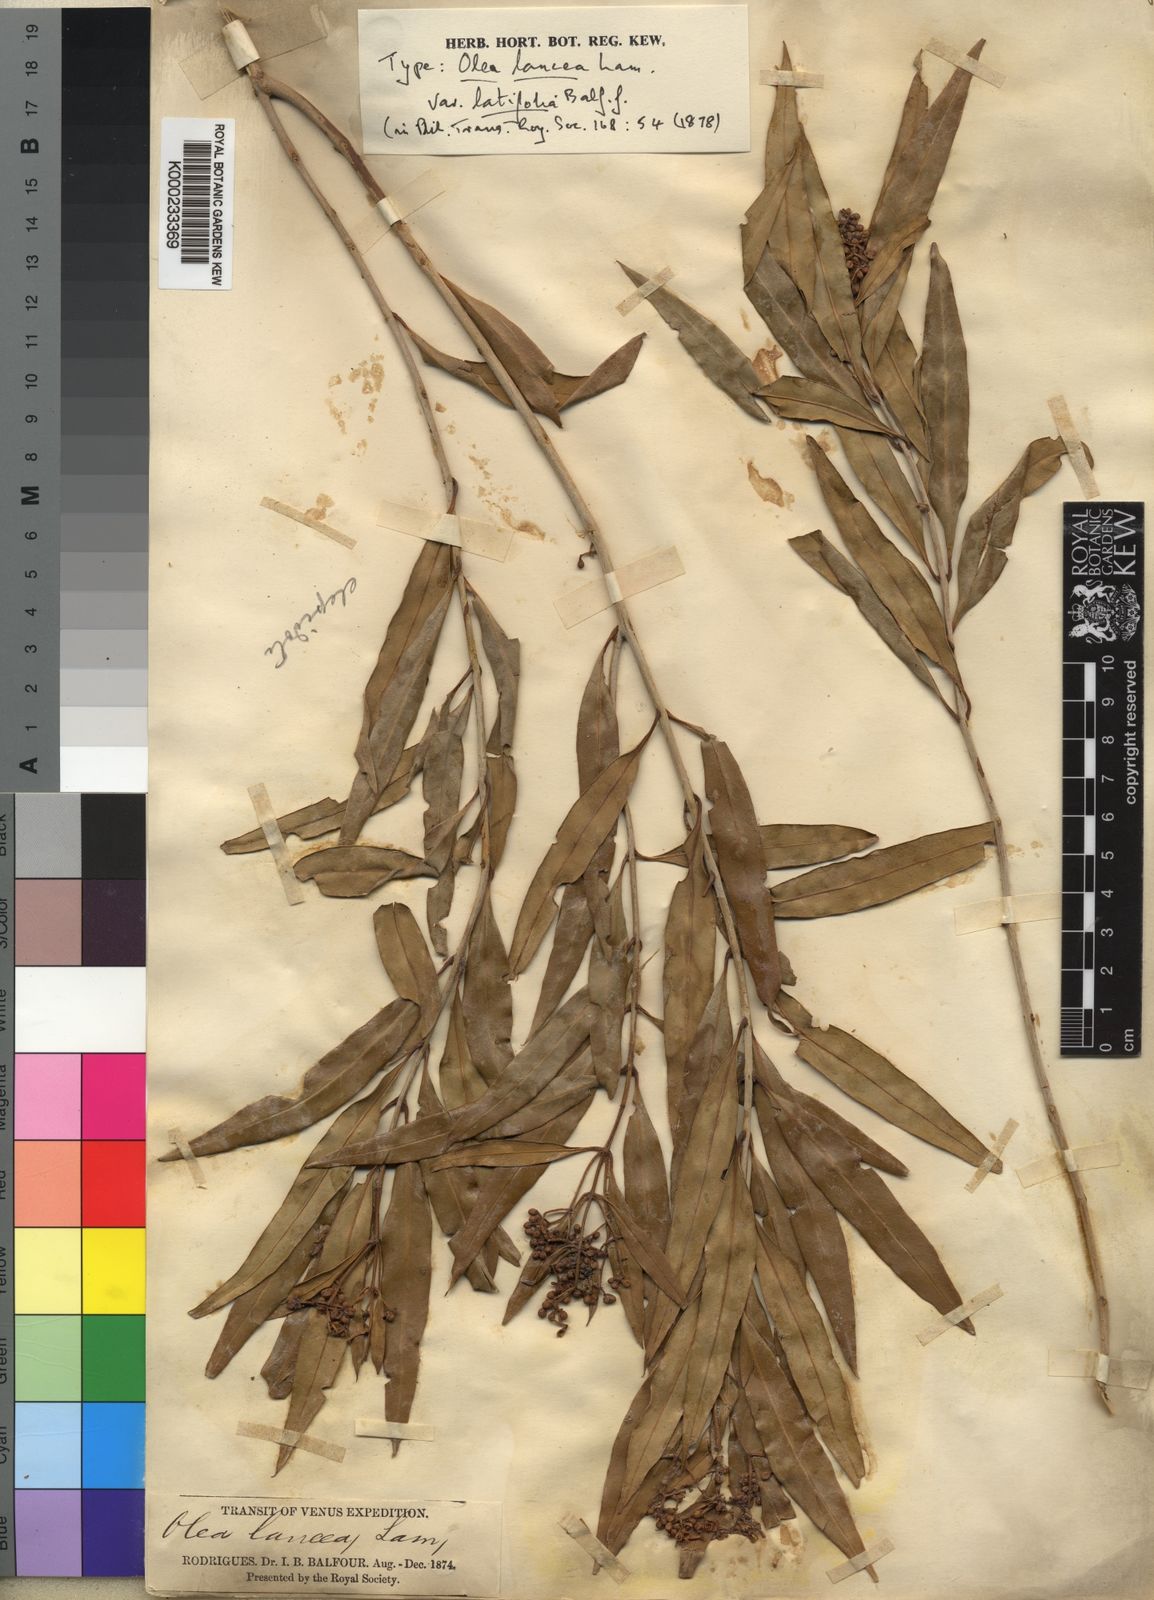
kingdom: Plantae
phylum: Tracheophyta
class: Magnoliopsida
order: Lamiales
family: Oleaceae
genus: Olea
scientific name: Olea lancea
